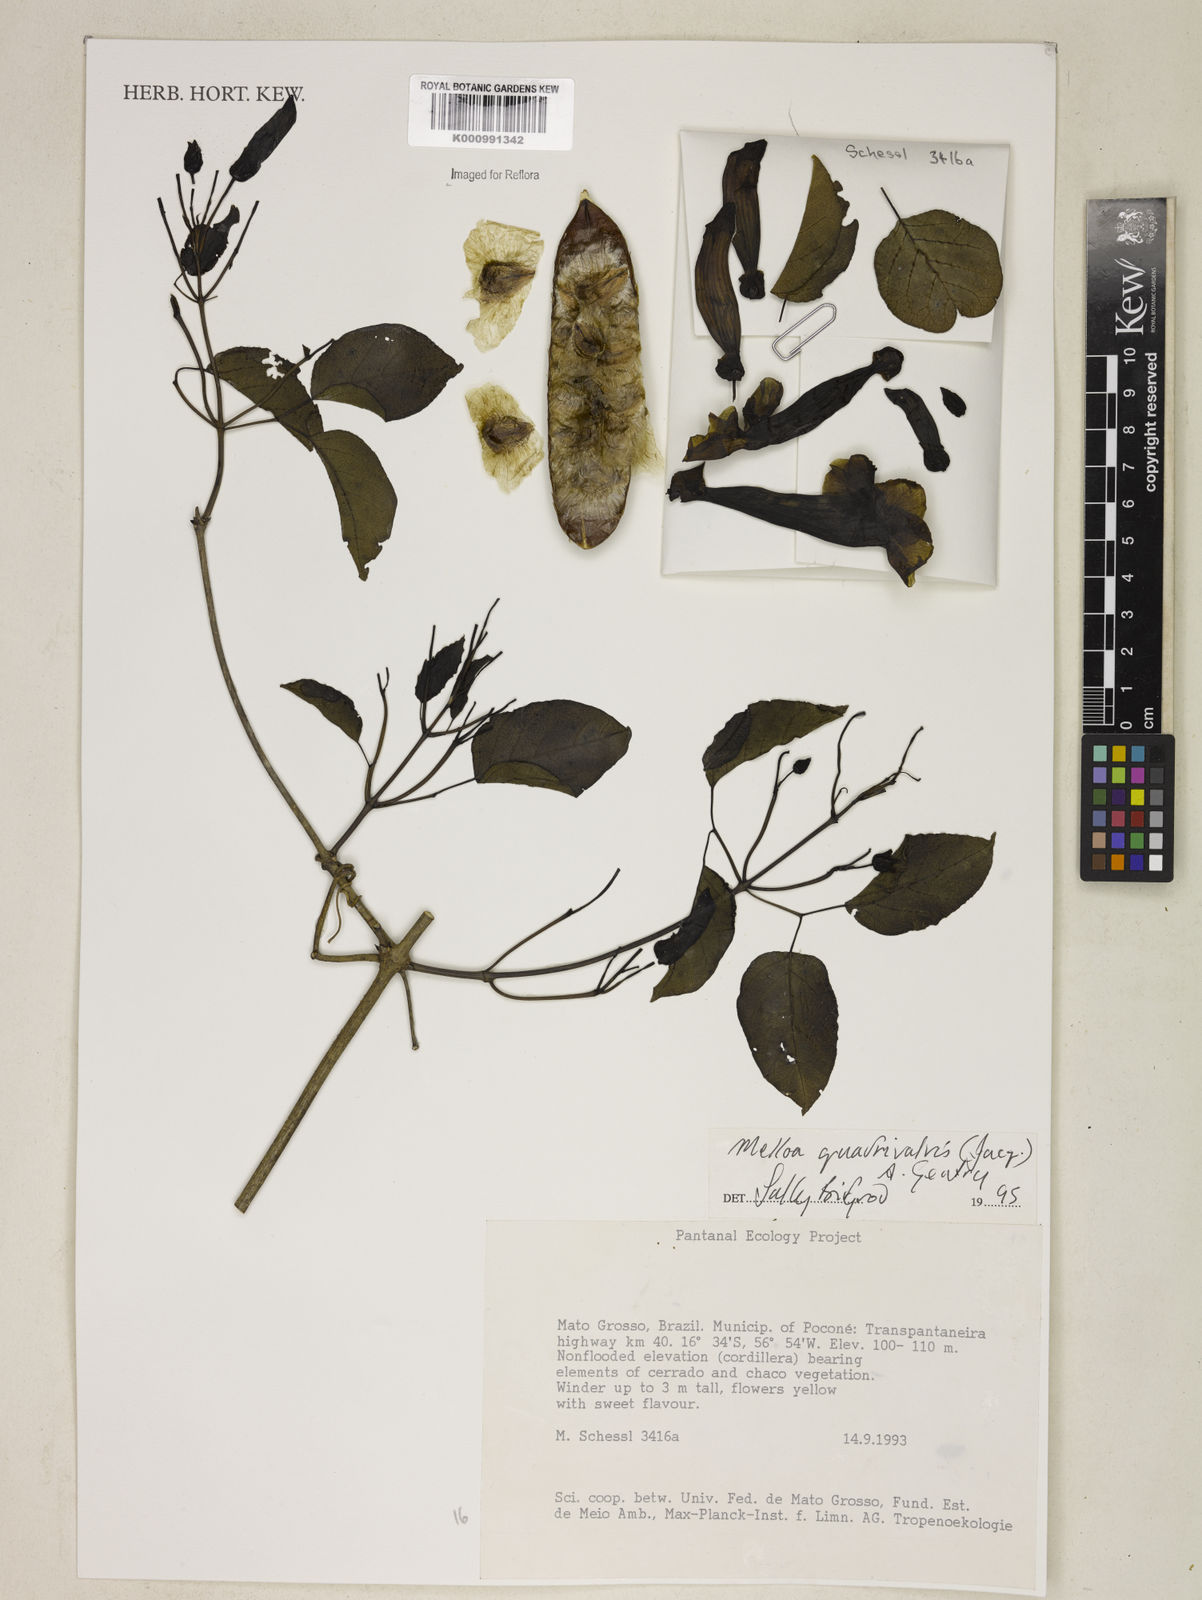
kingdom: Plantae
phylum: Tracheophyta
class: Magnoliopsida
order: Lamiales
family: Bignoniaceae
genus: Dolichandra
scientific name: Dolichandra quadrivalvis
